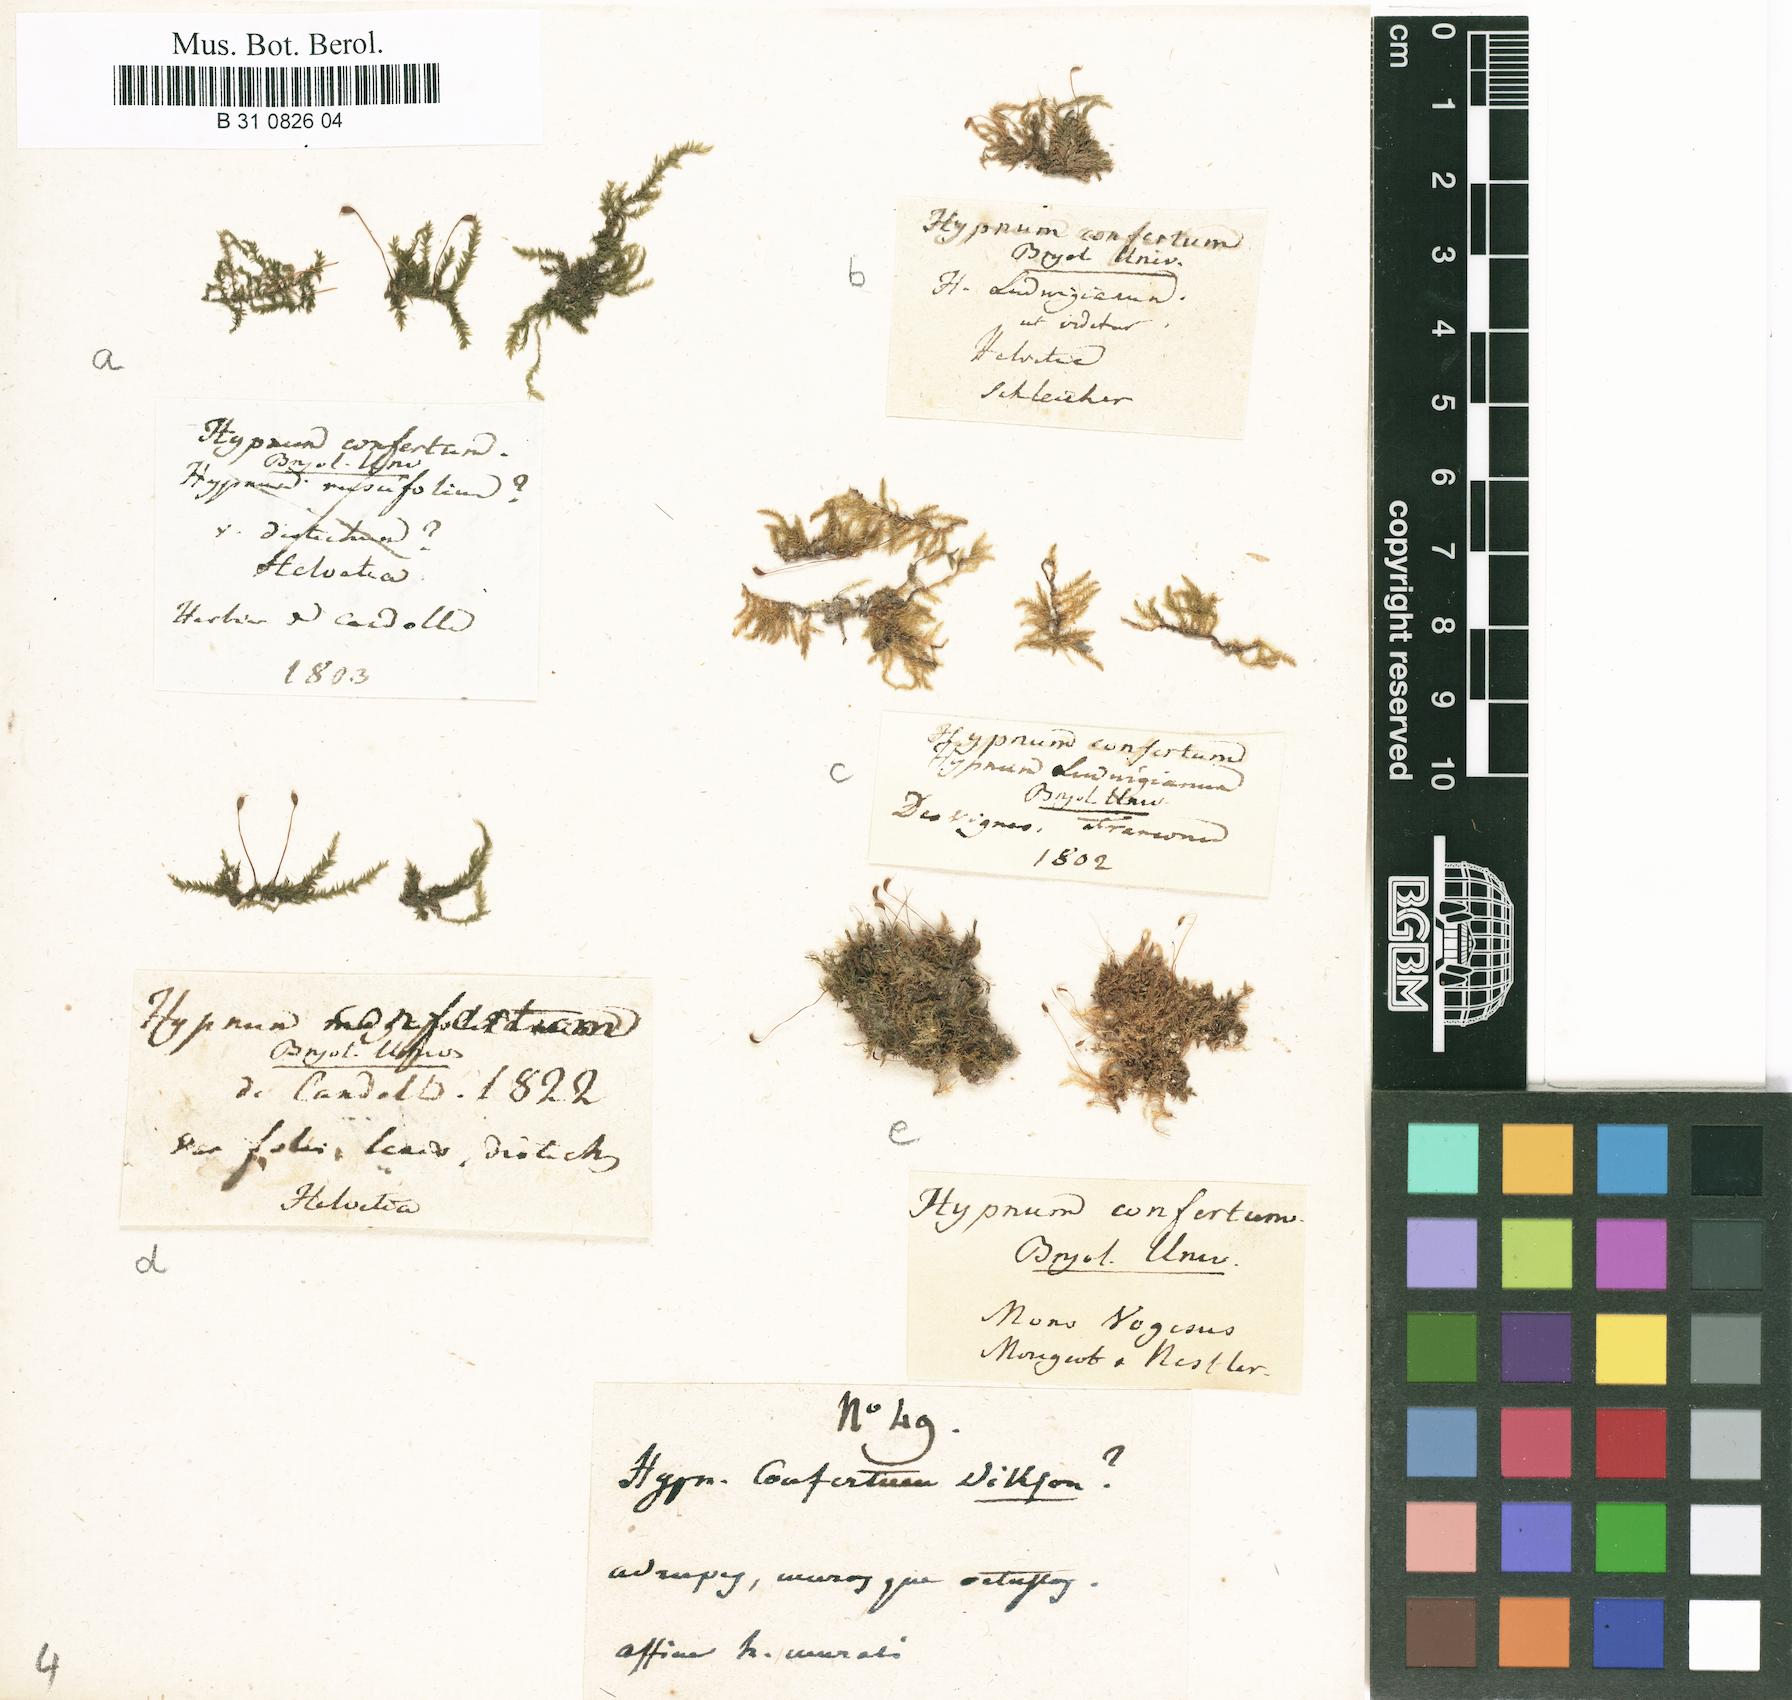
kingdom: Plantae
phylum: Bryophyta
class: Bryopsida
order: Hypnales
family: Brachytheciaceae
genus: Rhynchostegium
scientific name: Rhynchostegium confertum
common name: Clustered feather-moss
